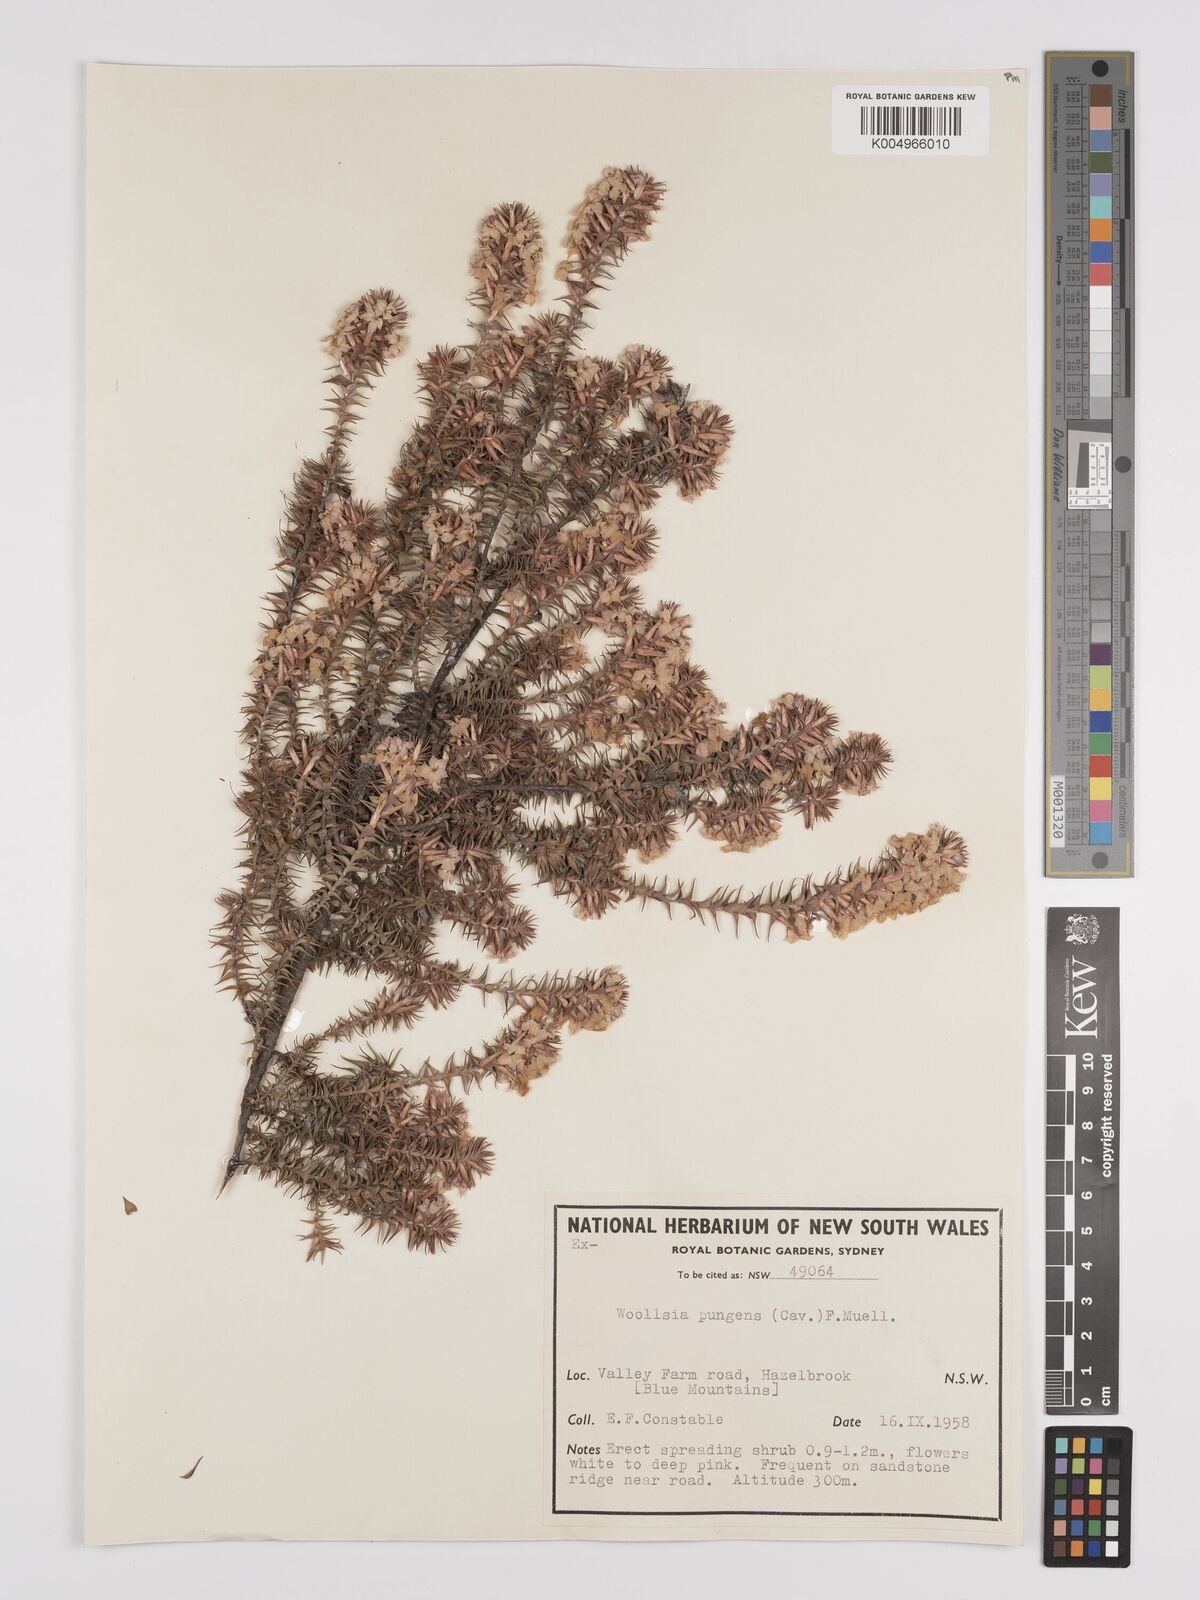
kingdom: Plantae
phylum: Tracheophyta
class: Magnoliopsida
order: Ericales
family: Ericaceae
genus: Woollsia
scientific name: Woollsia pungens
